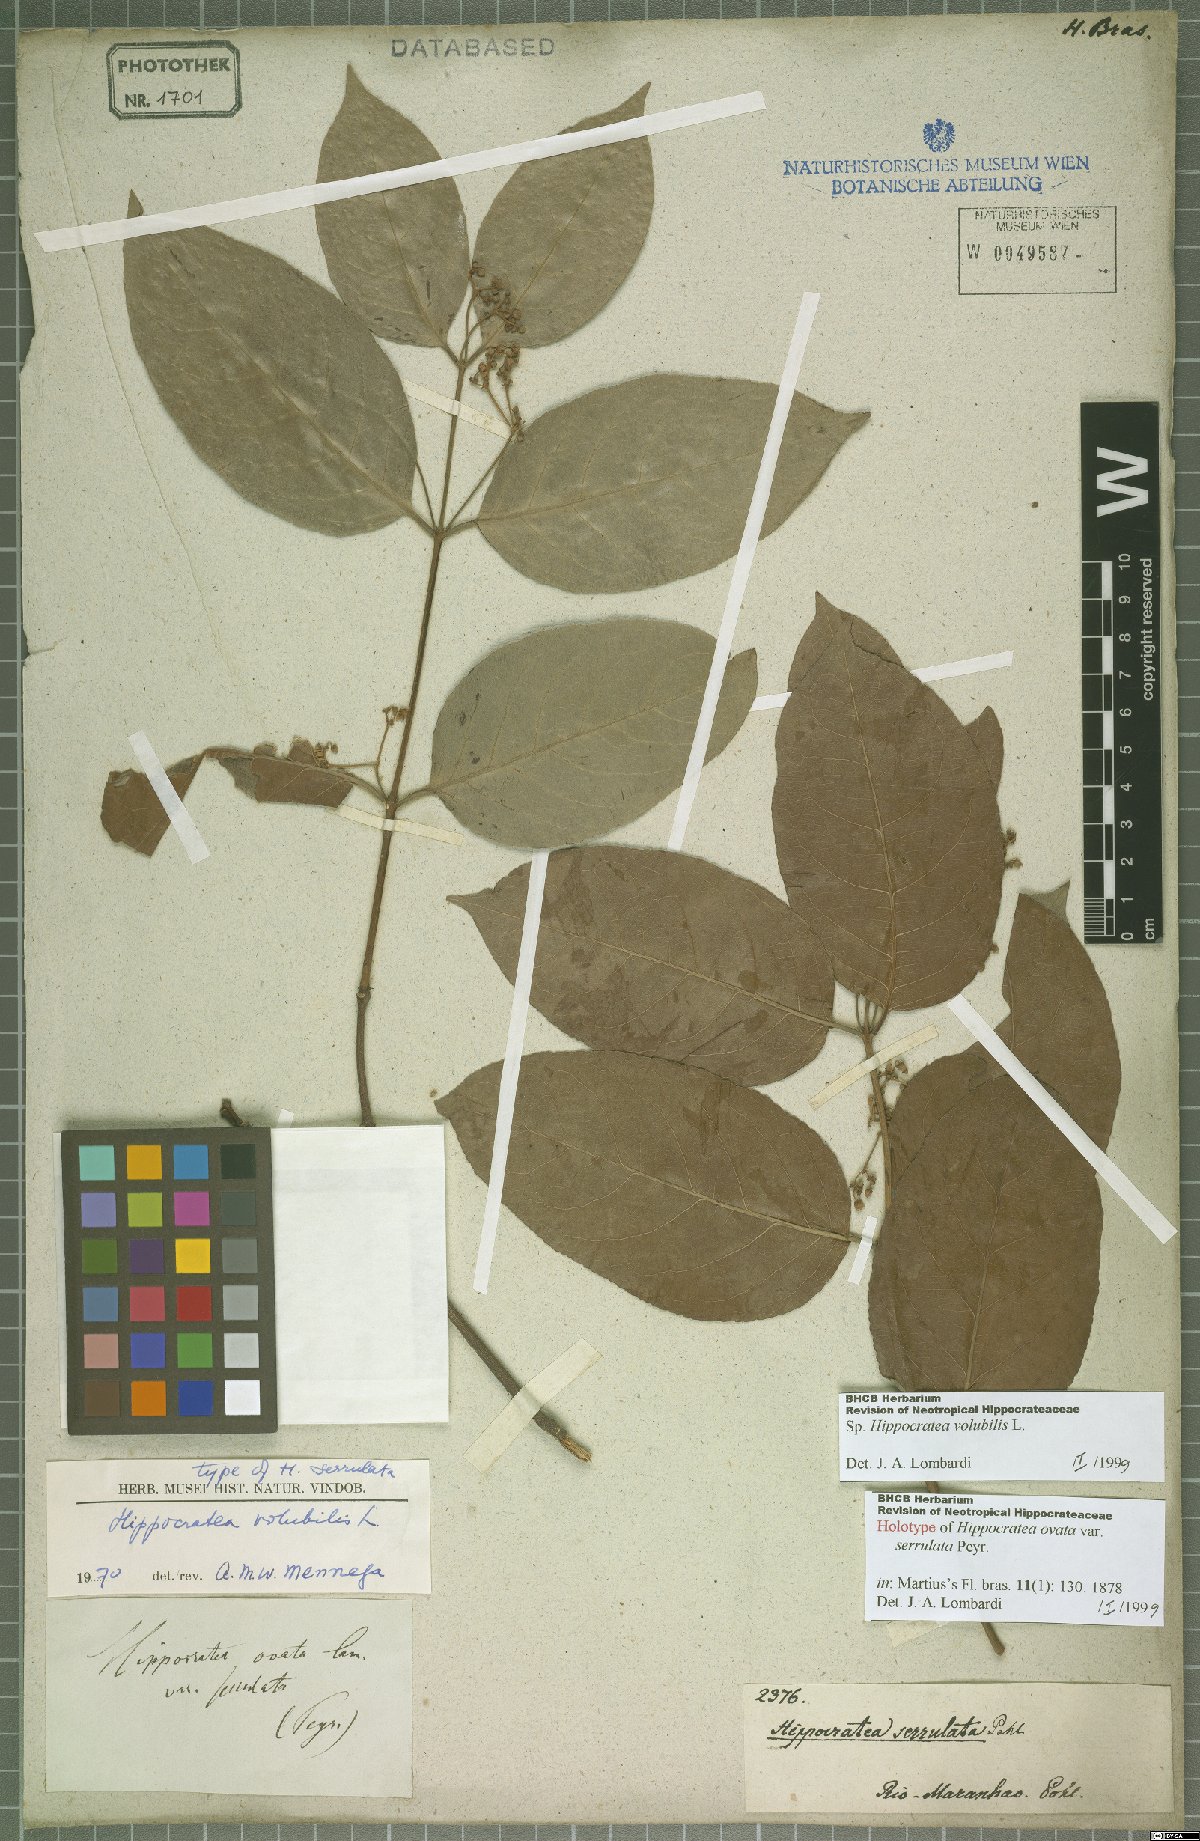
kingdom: Plantae
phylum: Tracheophyta
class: Magnoliopsida
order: Celastrales
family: Celastraceae
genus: Hippocratea
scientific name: Hippocratea volubilis
